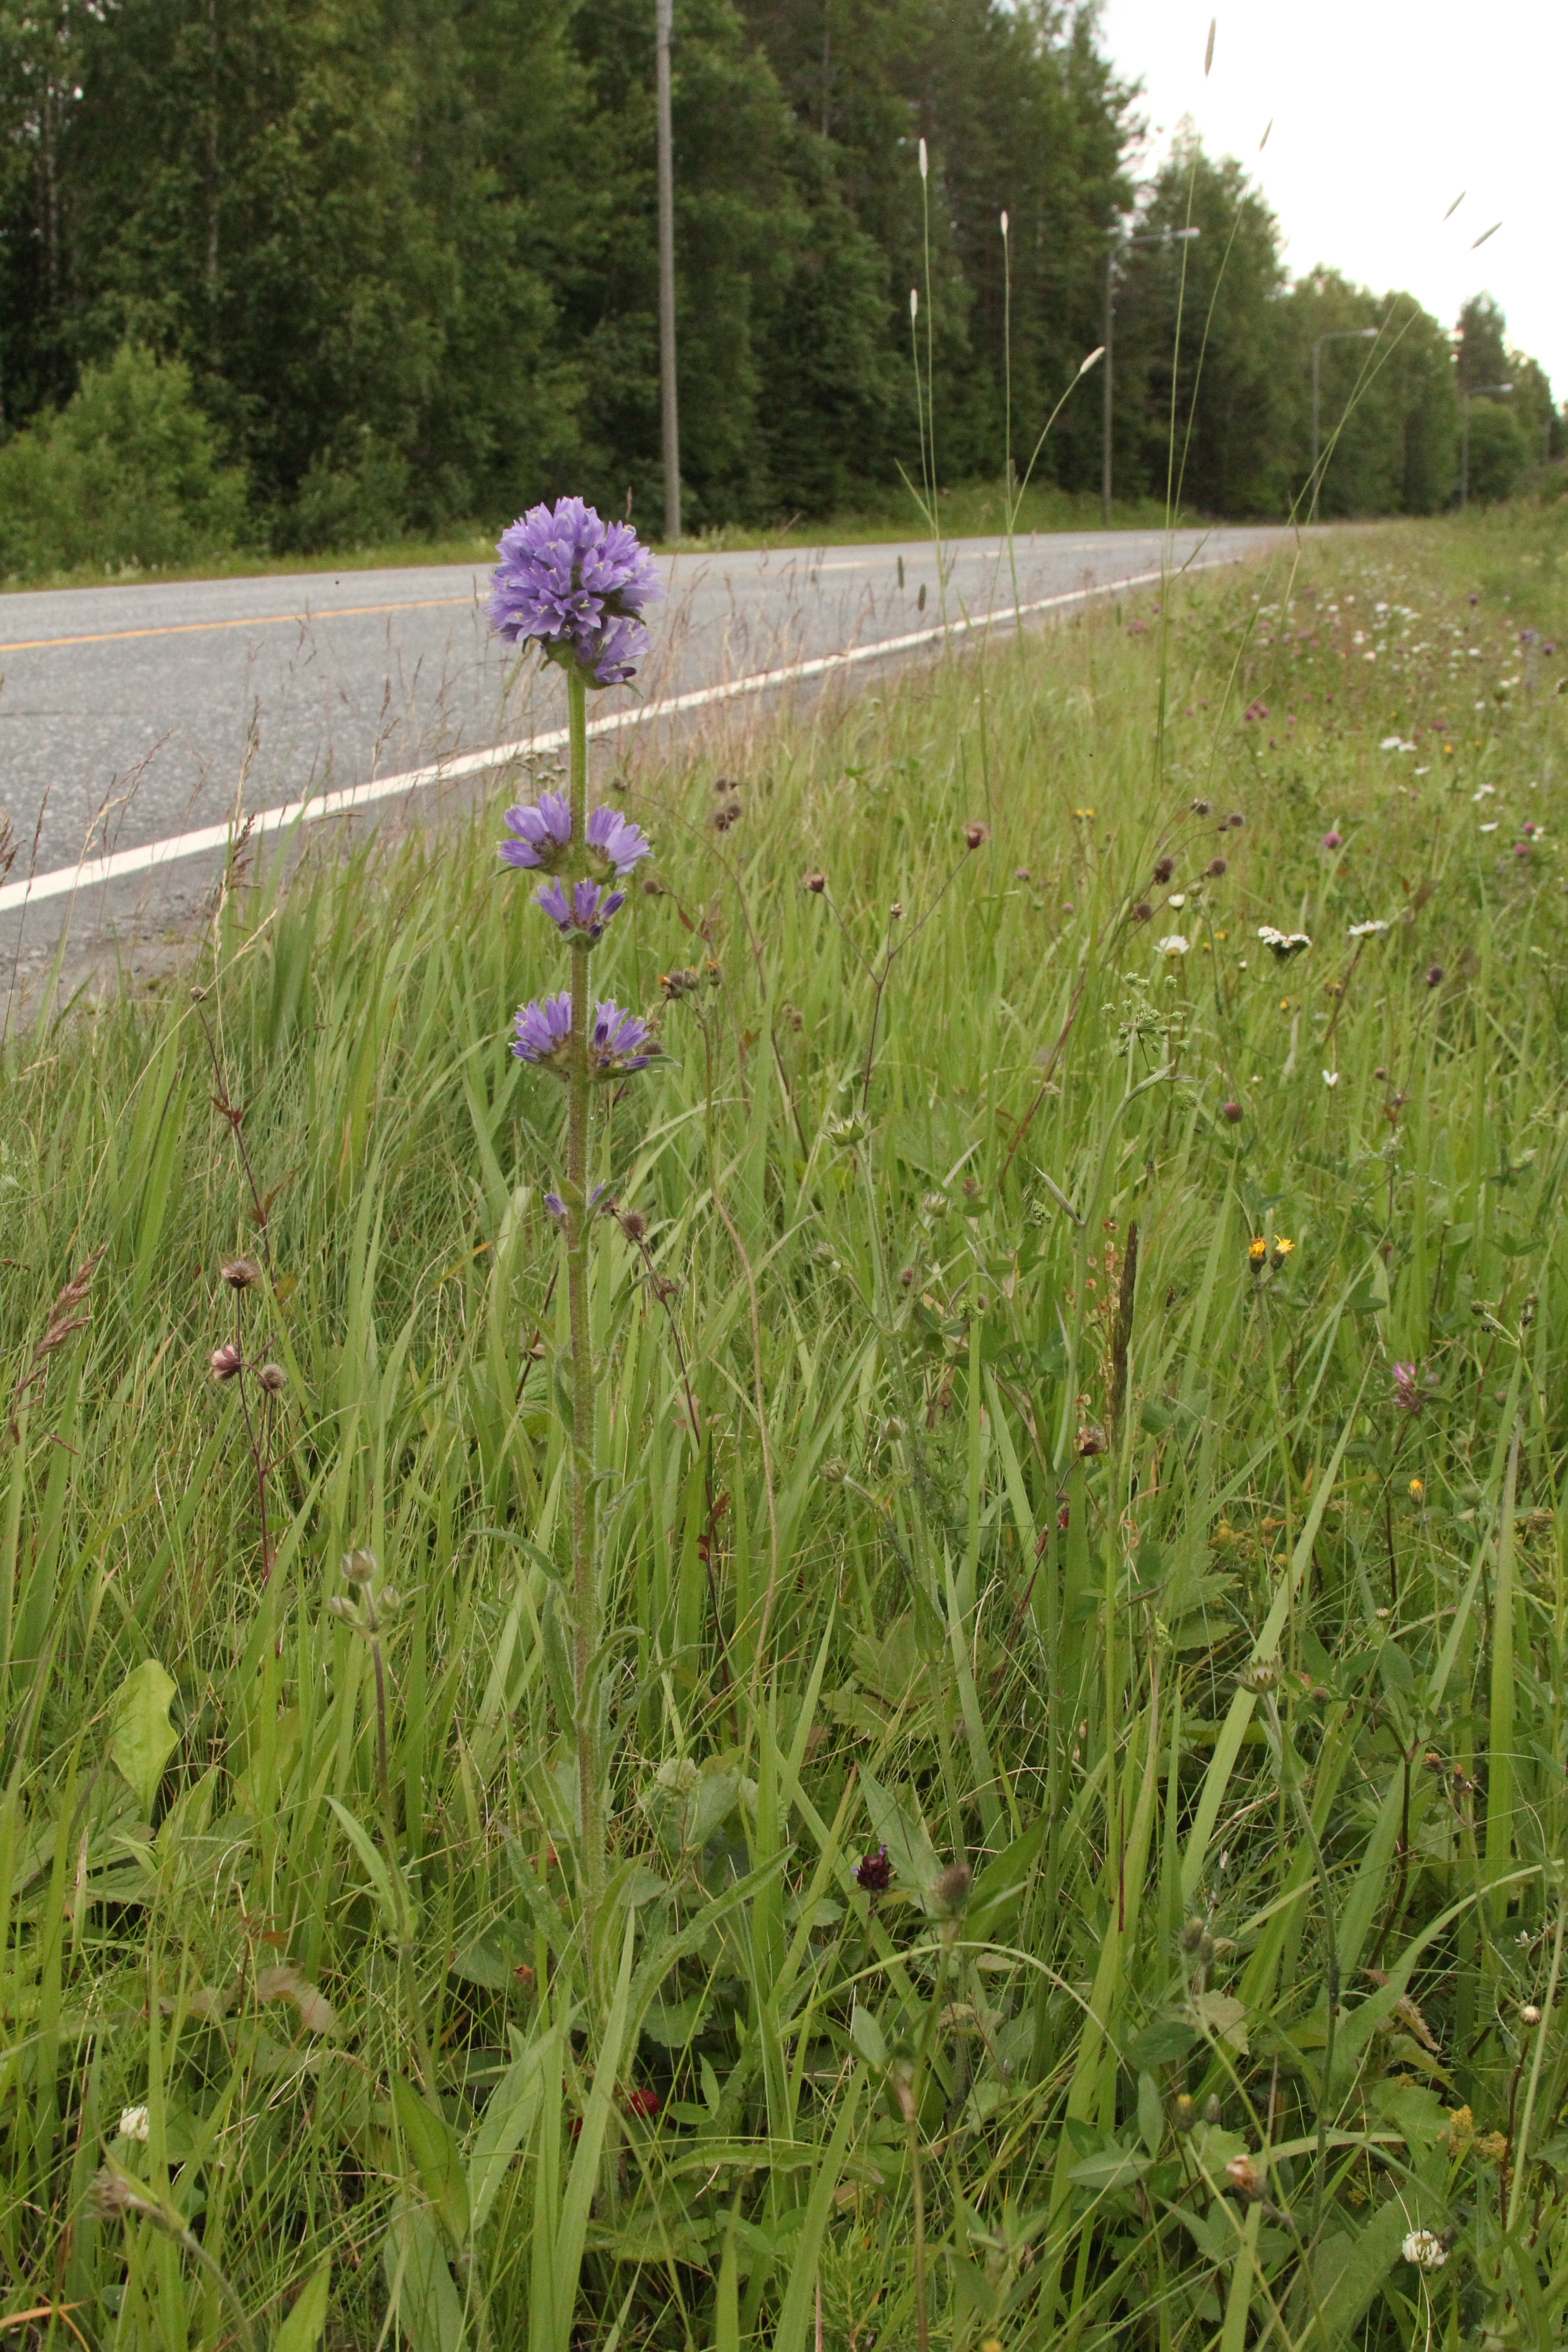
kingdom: Plantae
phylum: Tracheophyta
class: Magnoliopsida
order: Asterales
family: Campanulaceae
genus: Campanula
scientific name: Campanula cervicaria
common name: Bristly bellflower
